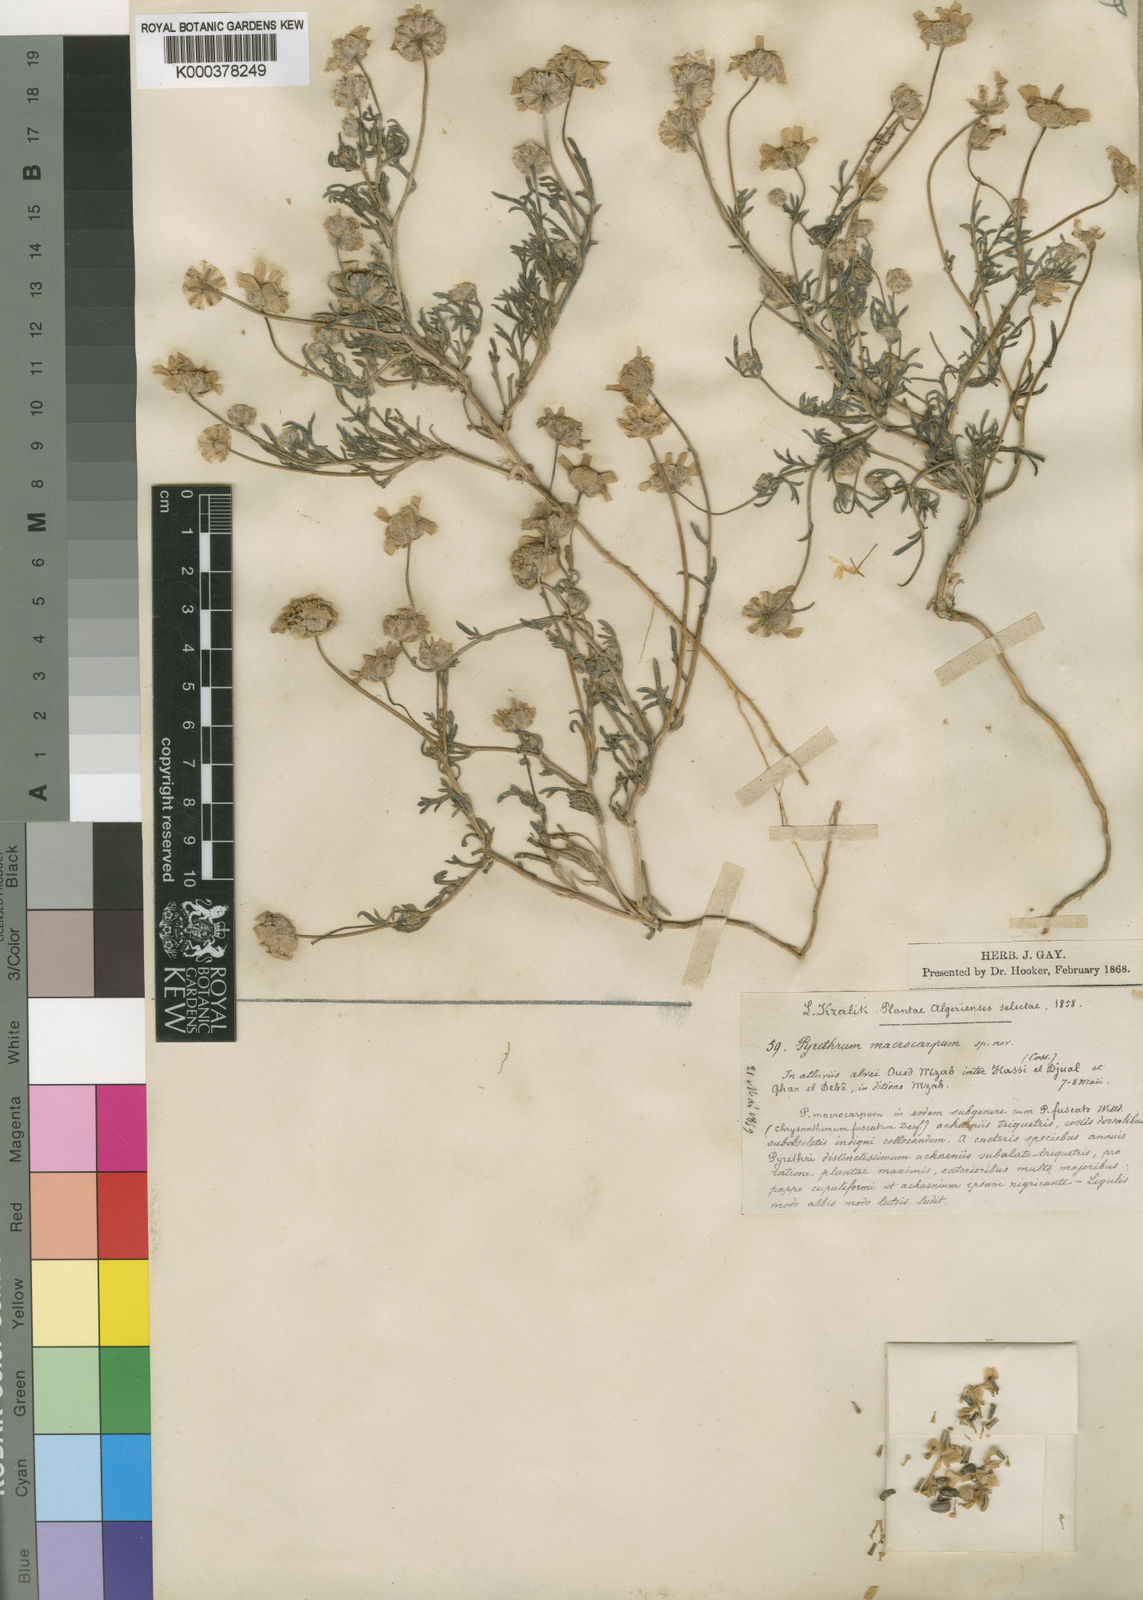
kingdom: Plantae
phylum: Tracheophyta
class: Magnoliopsida
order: Asterales
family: Asteraceae
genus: Endopappus
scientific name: Endopappus macrocarpus
